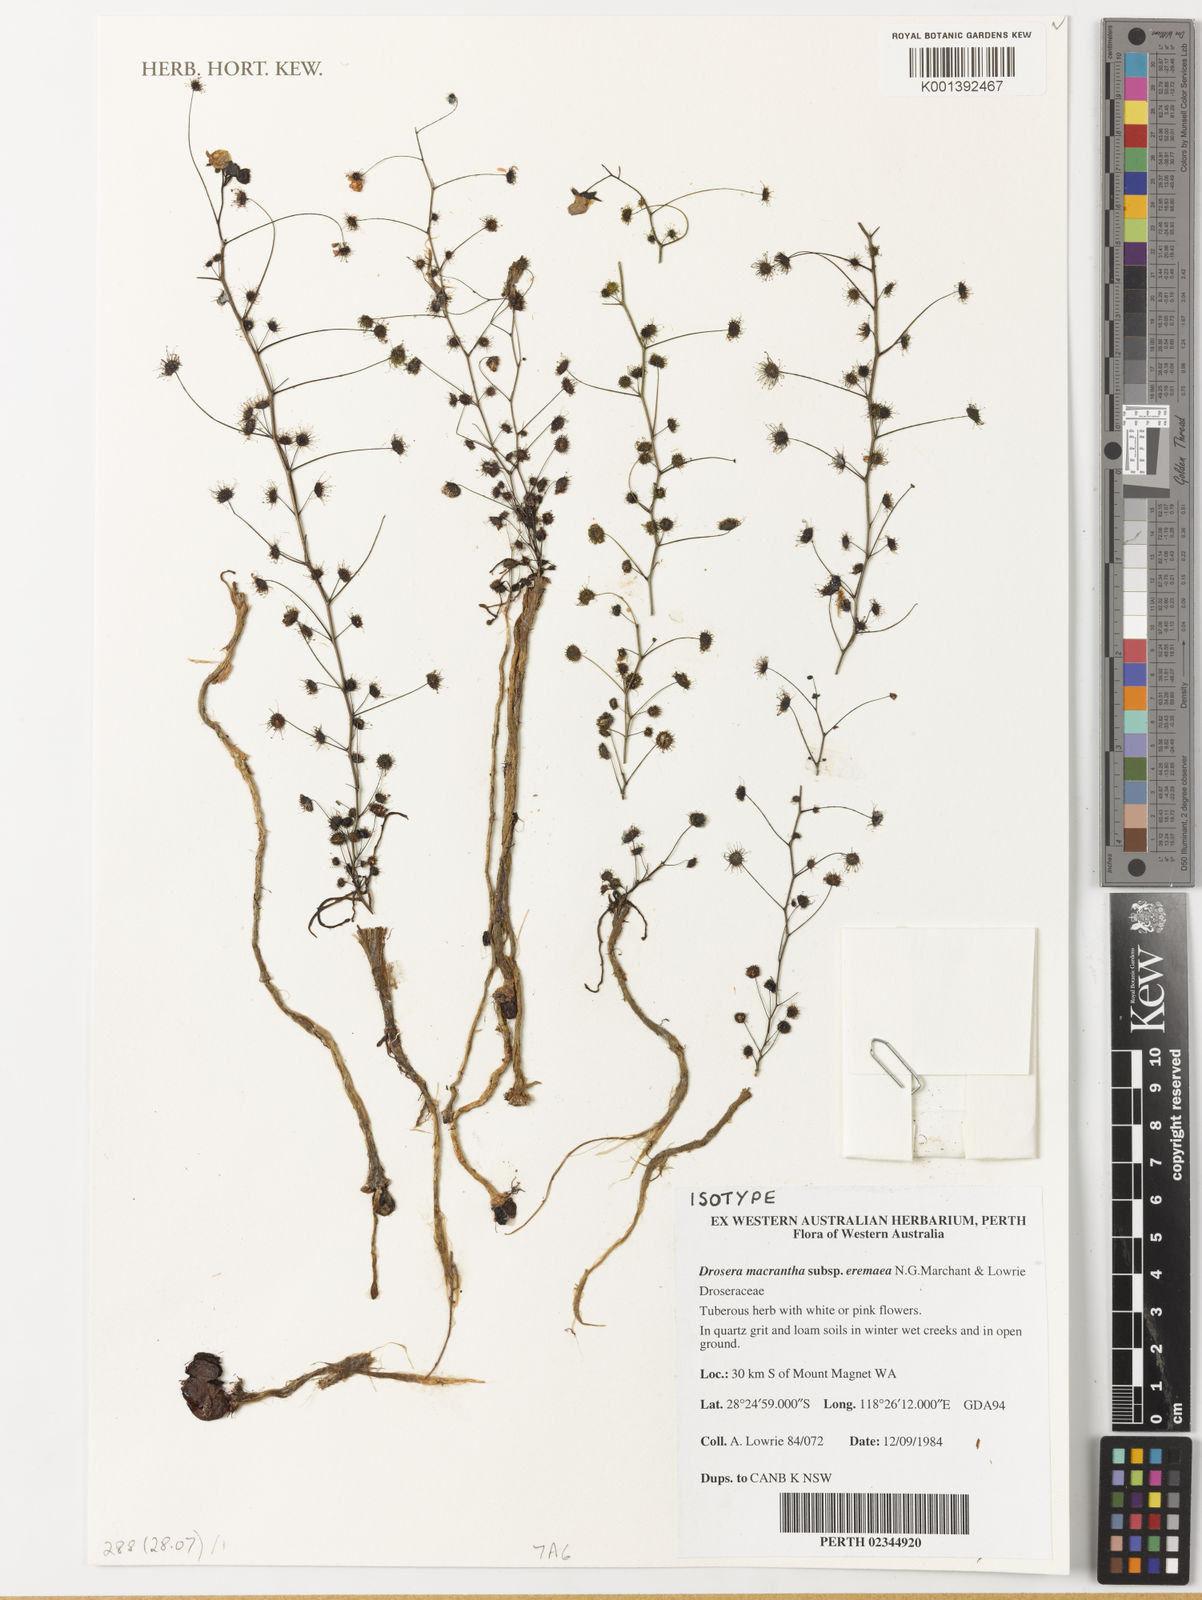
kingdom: Plantae
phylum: Tracheophyta
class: Magnoliopsida
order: Caryophyllales
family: Droseraceae
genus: Drosera
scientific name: Drosera stricticaulis
